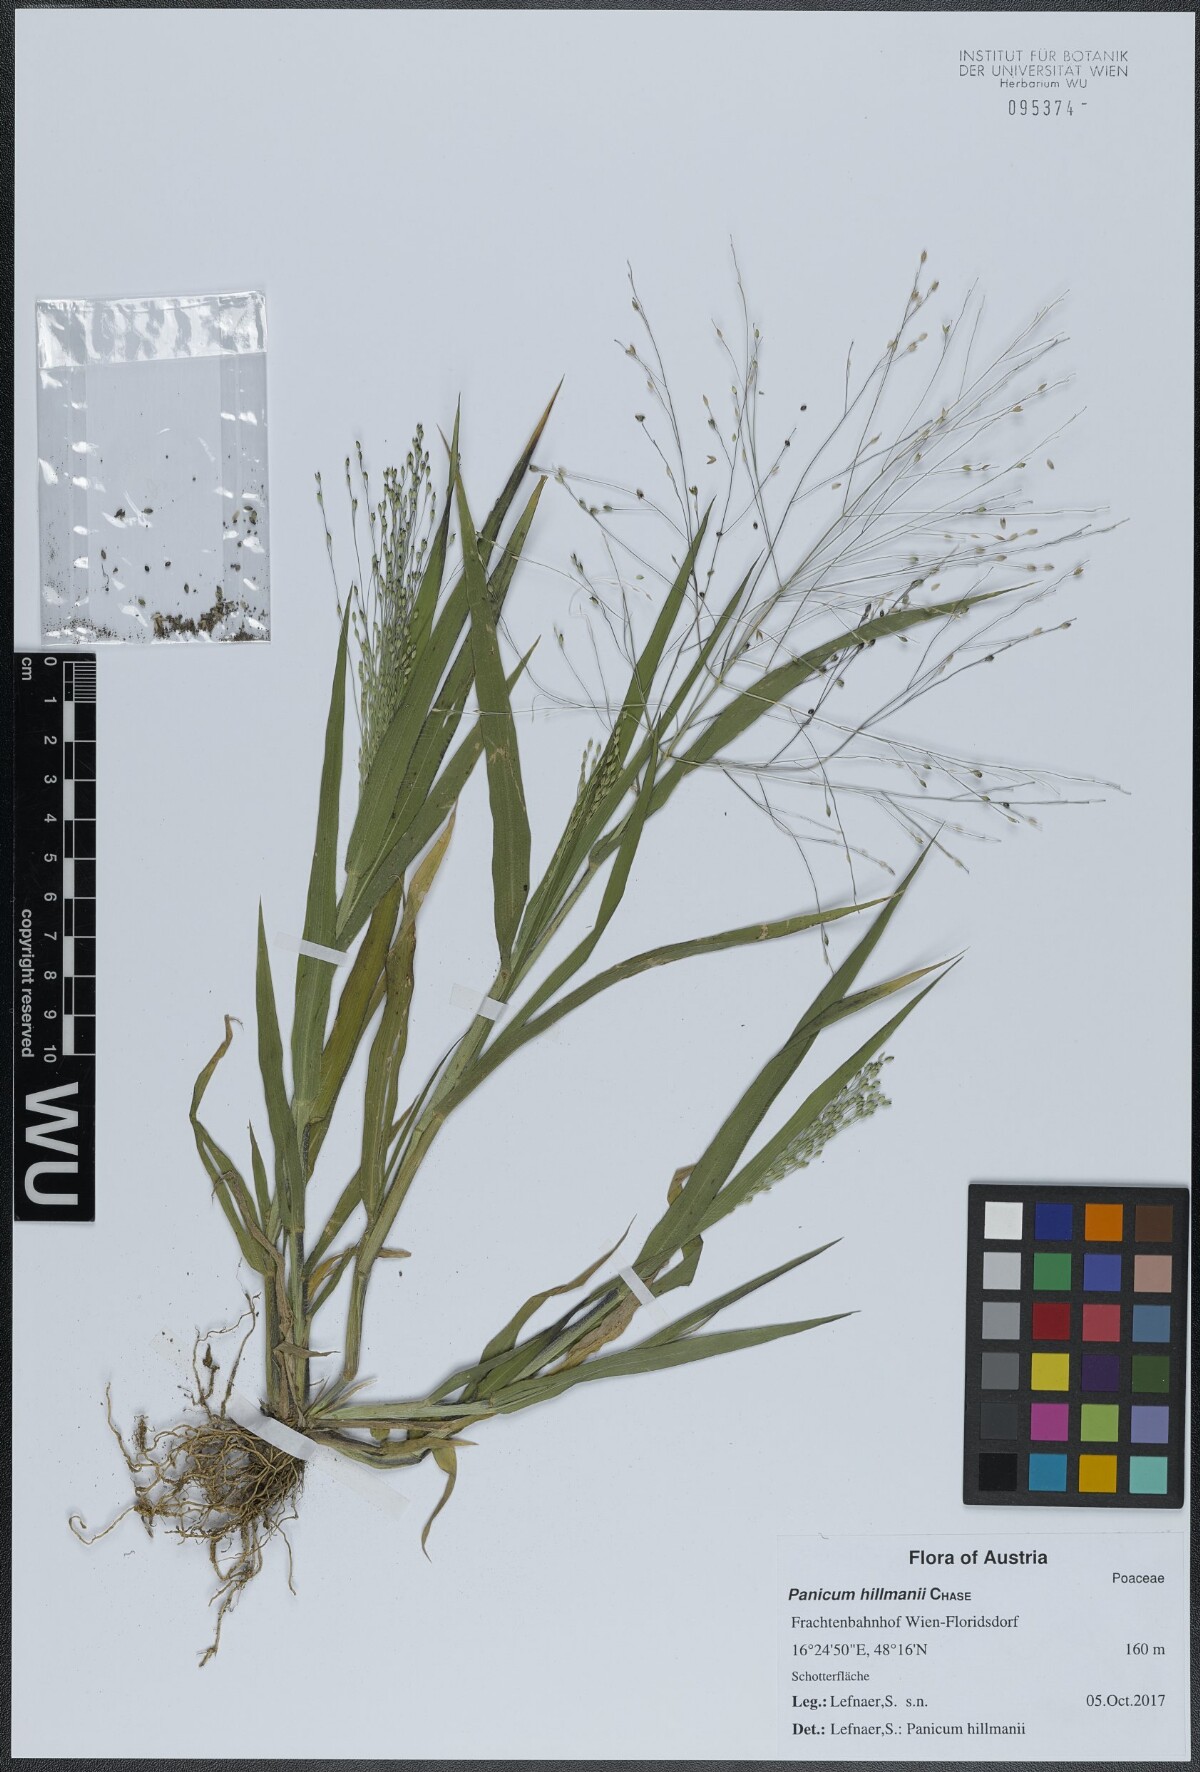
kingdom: Plantae
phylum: Tracheophyta
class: Liliopsida
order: Poales
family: Poaceae
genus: Panicum
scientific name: Panicum hillmanii
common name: Hillman's panicum
